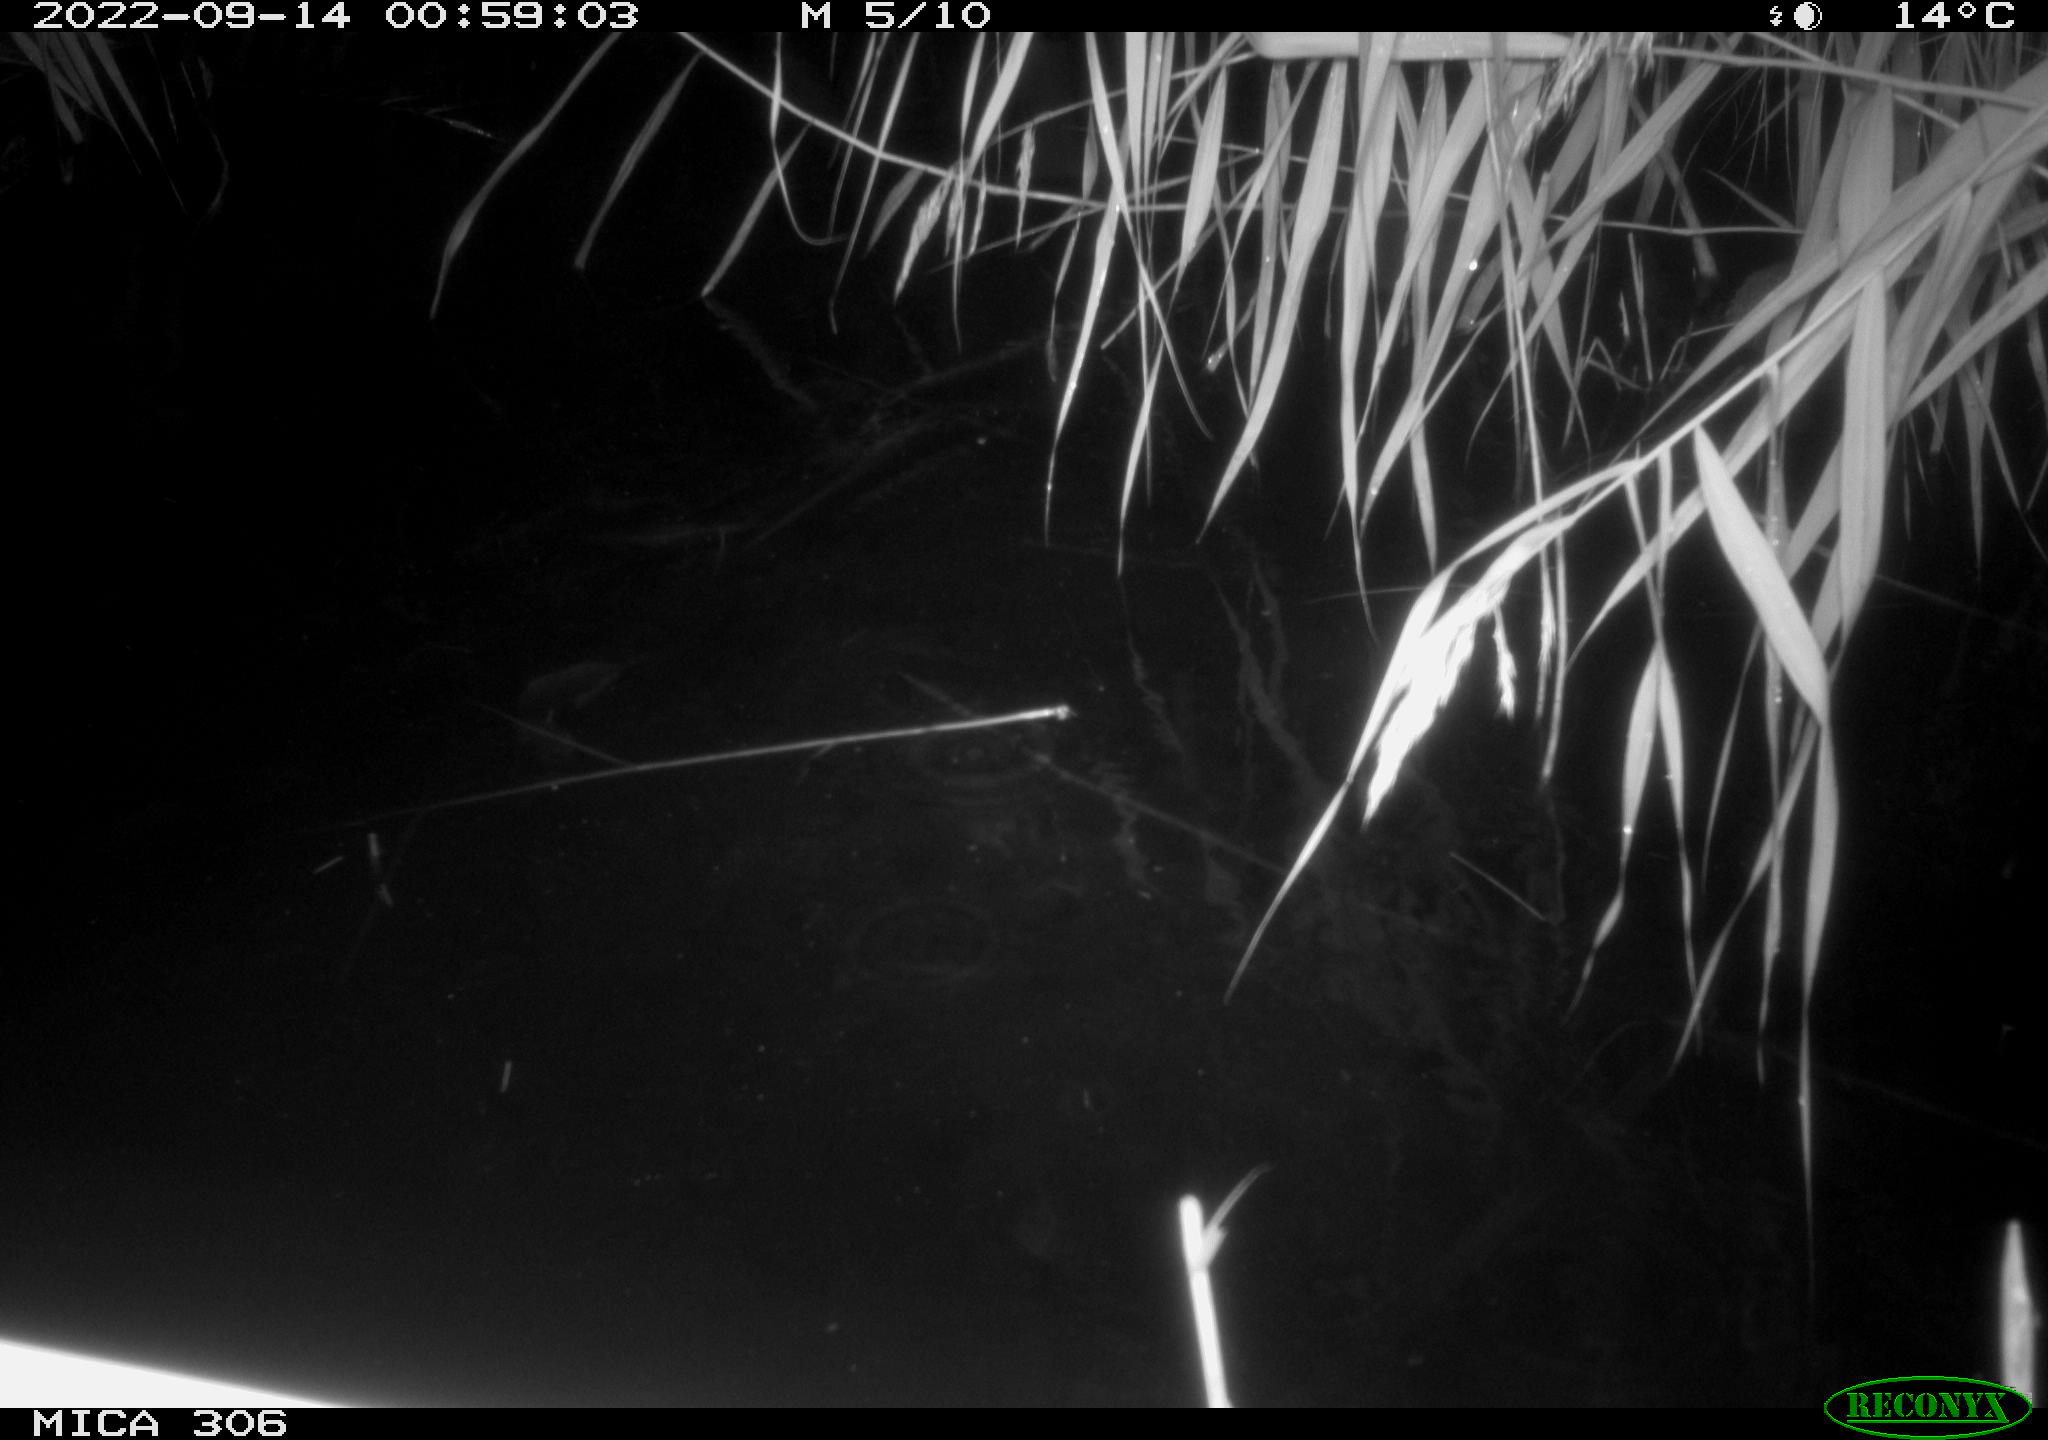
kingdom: Animalia
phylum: Chordata
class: Mammalia
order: Rodentia
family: Muridae
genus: Rattus
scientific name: Rattus norvegicus
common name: Brown rat
